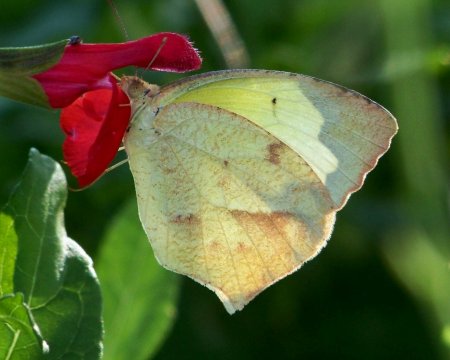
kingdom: Animalia
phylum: Arthropoda
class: Insecta
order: Lepidoptera
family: Pieridae
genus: Eurema
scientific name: Eurema mexicana
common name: Mexican Yellow
